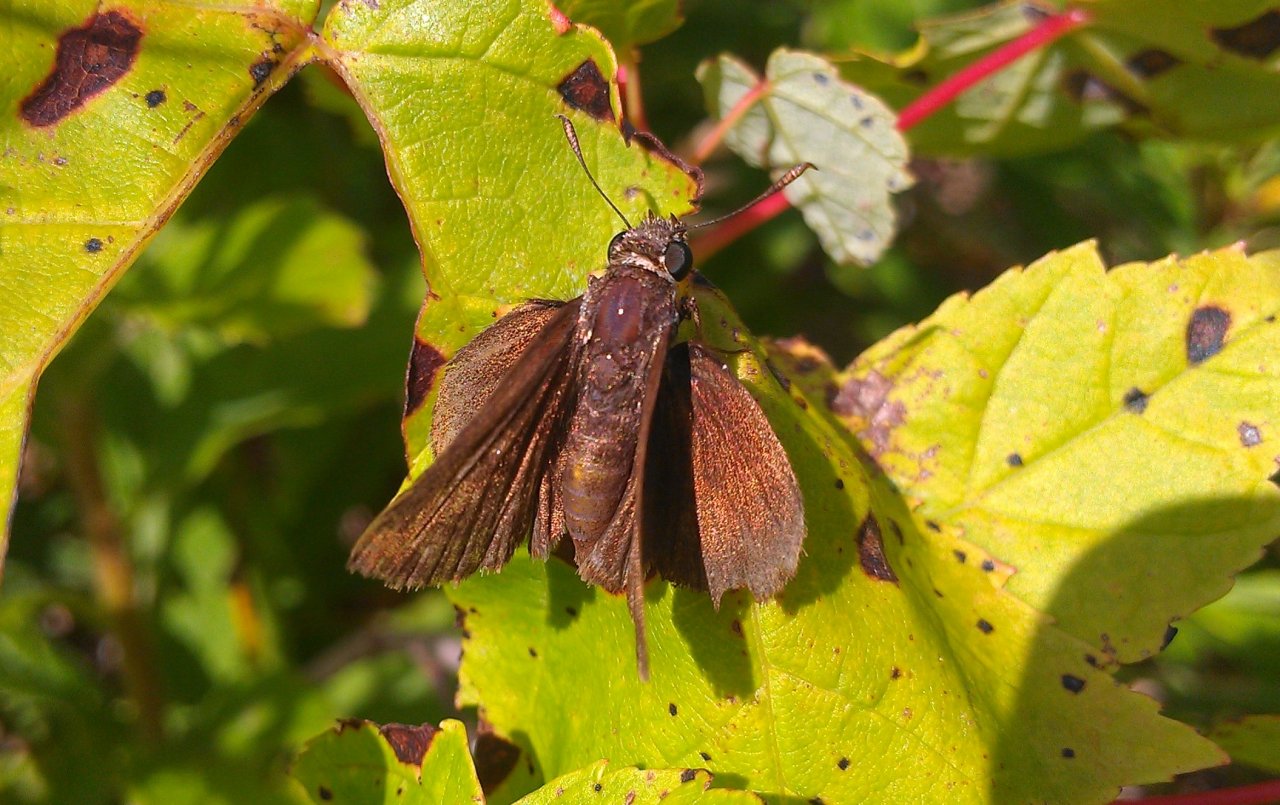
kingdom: Animalia
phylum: Arthropoda
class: Insecta
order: Lepidoptera
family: Hesperiidae
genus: Euphyes
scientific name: Euphyes vestris
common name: Dun Skipper
